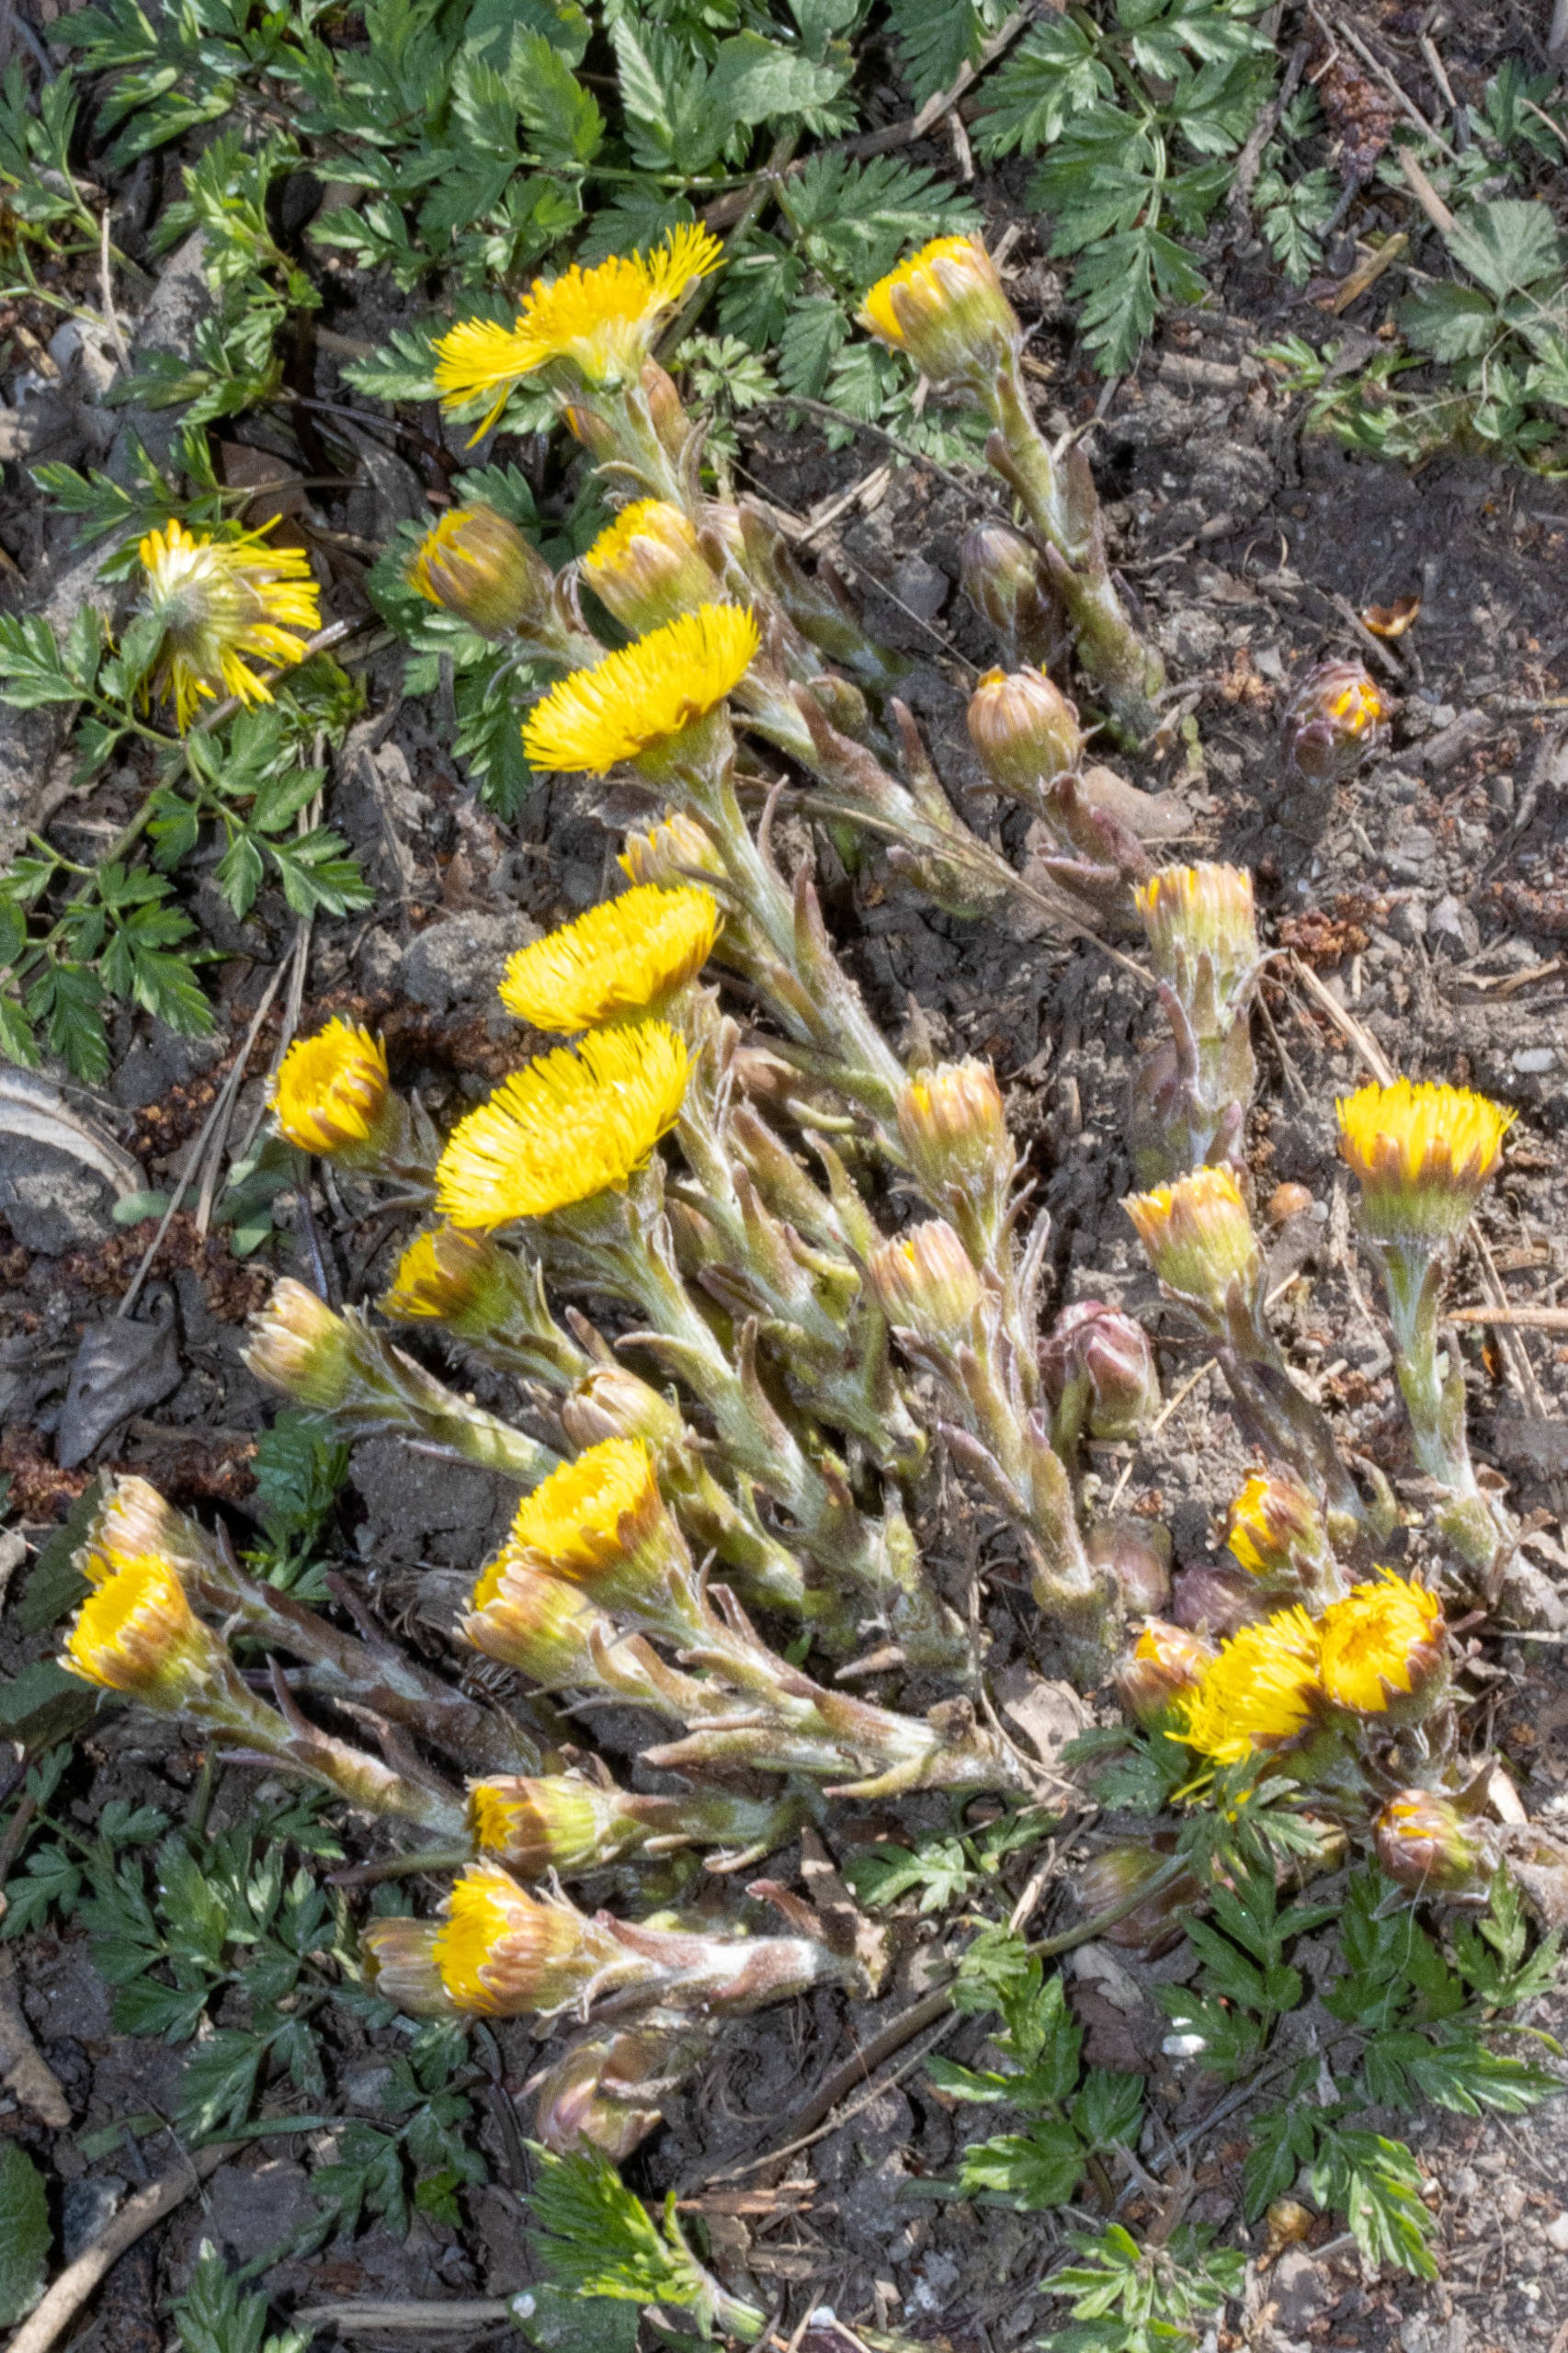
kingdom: Plantae
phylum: Tracheophyta
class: Magnoliopsida
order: Asterales
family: Asteraceae
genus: Tussilago
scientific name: Tussilago farfara
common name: Følfod
